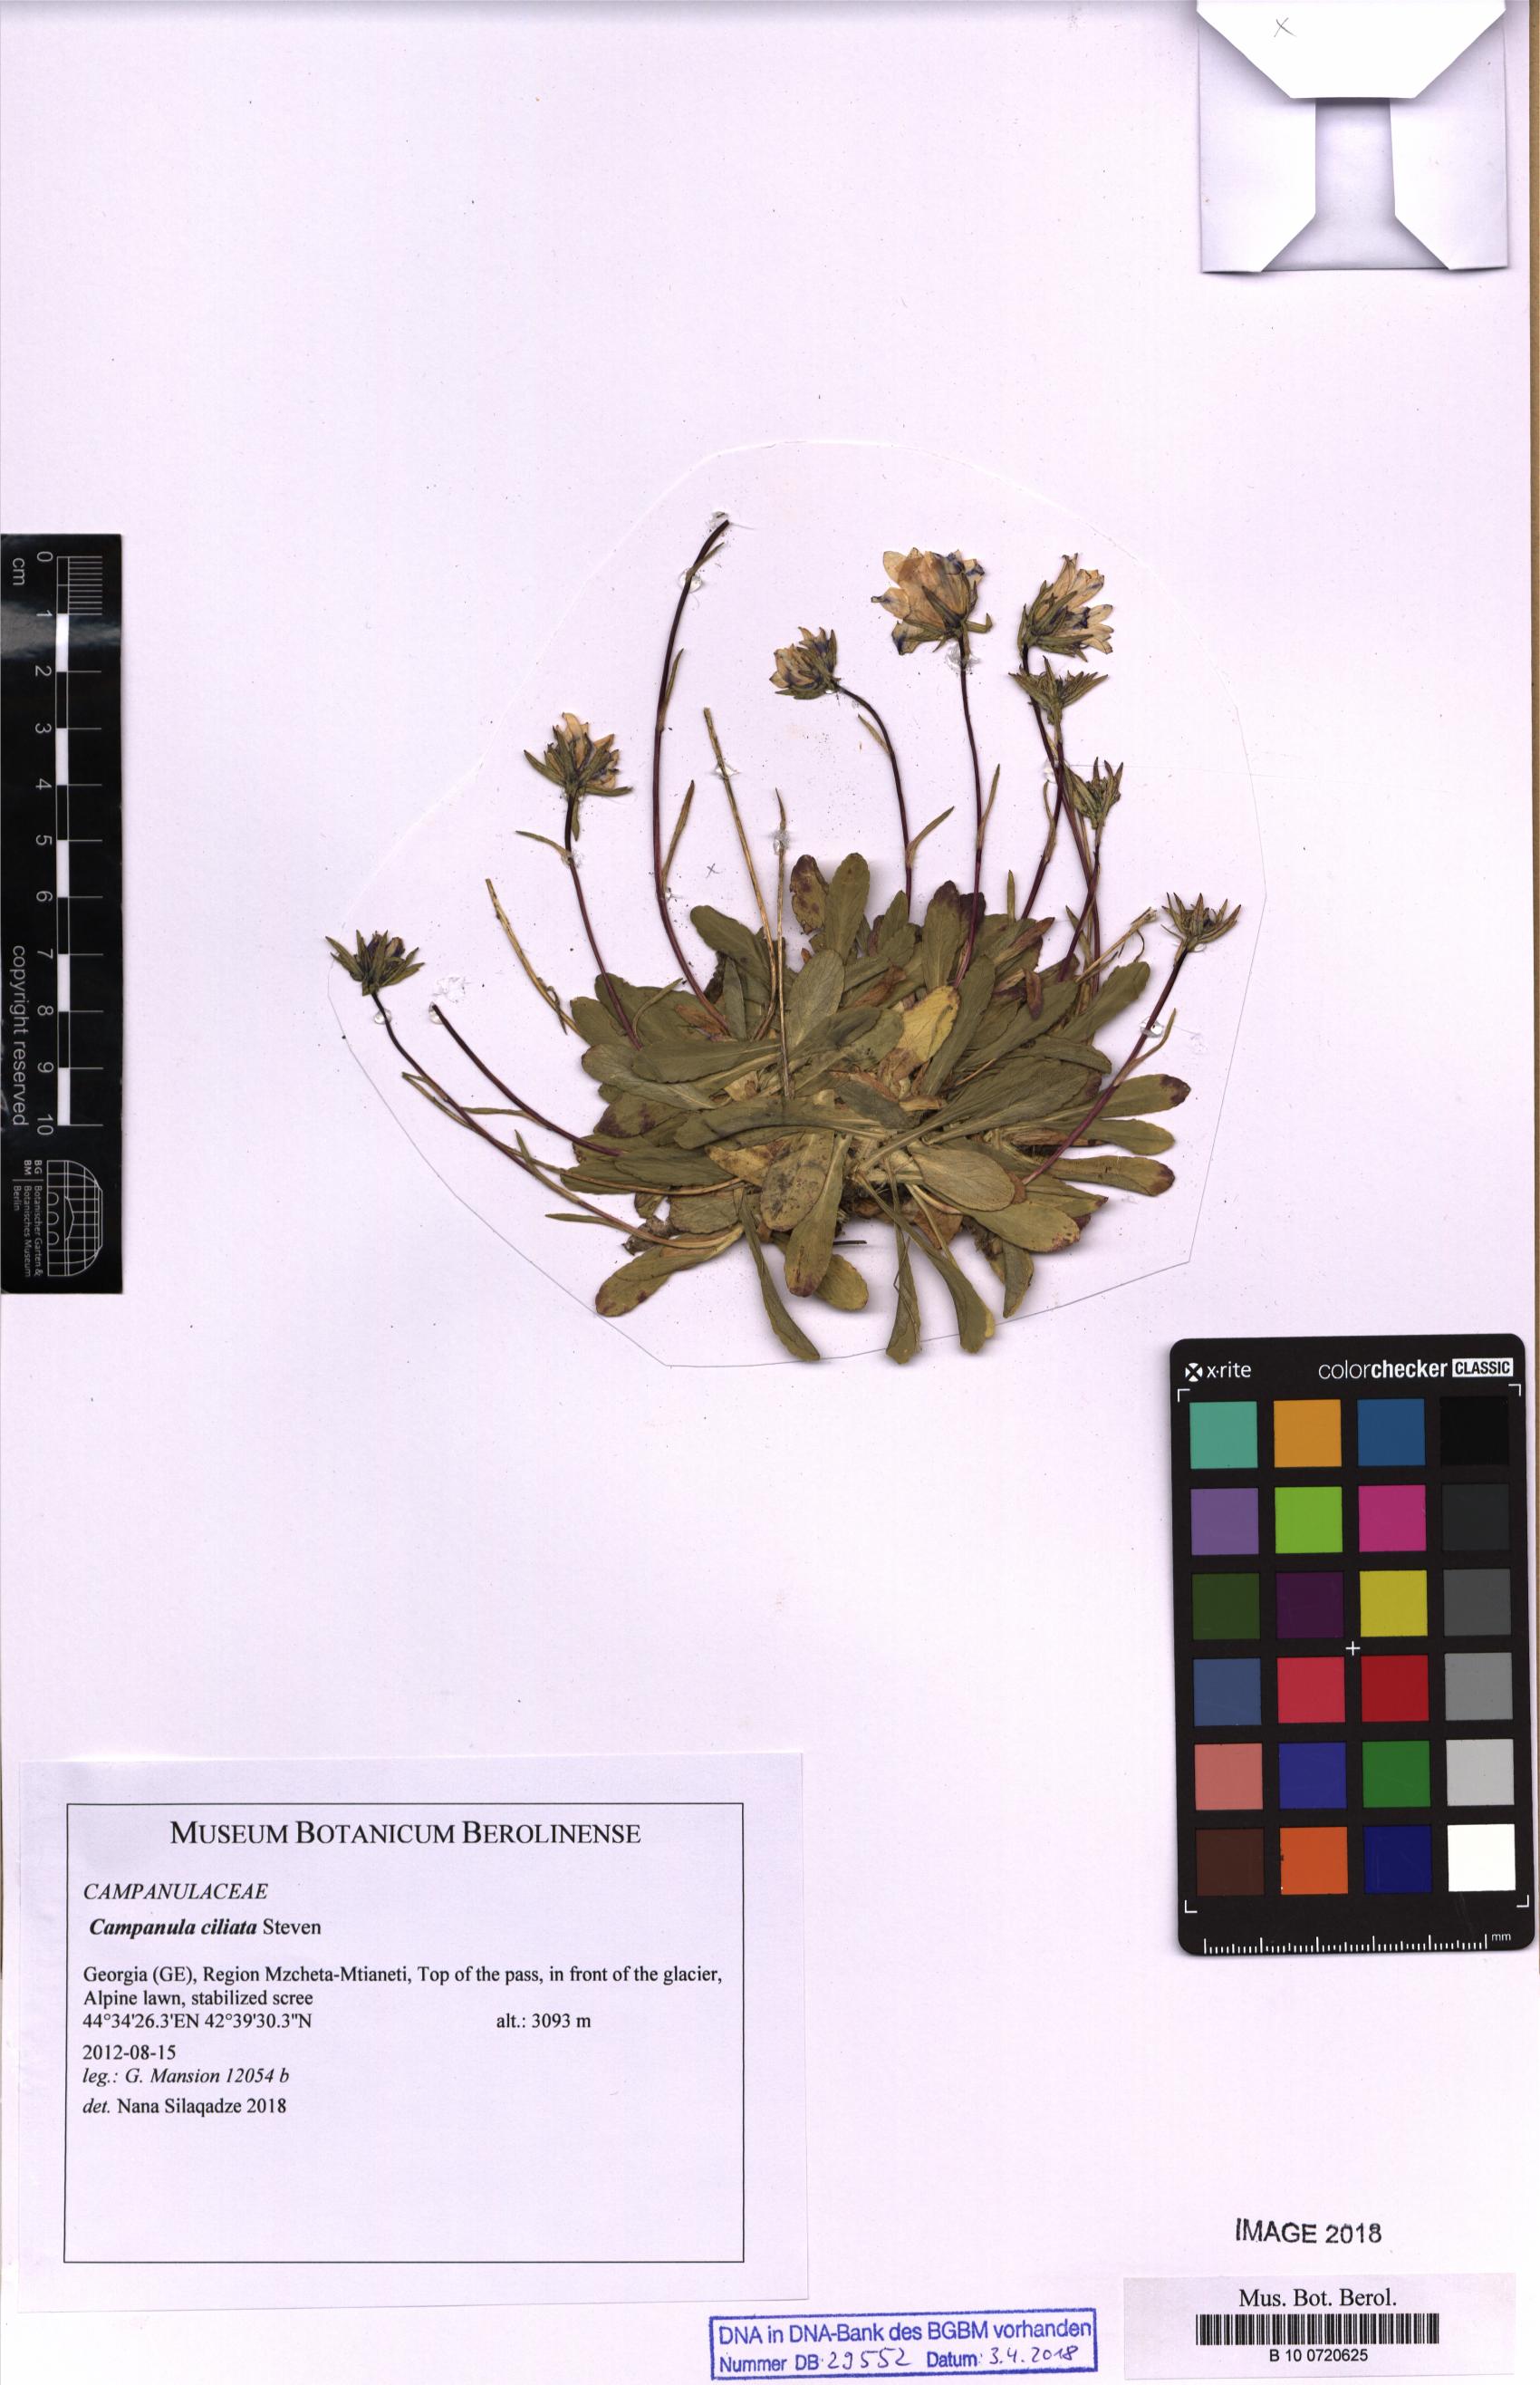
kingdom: Plantae
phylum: Tracheophyta
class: Magnoliopsida
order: Asterales
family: Campanulaceae
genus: Wahlenbergia
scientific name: Wahlenbergia tenella
